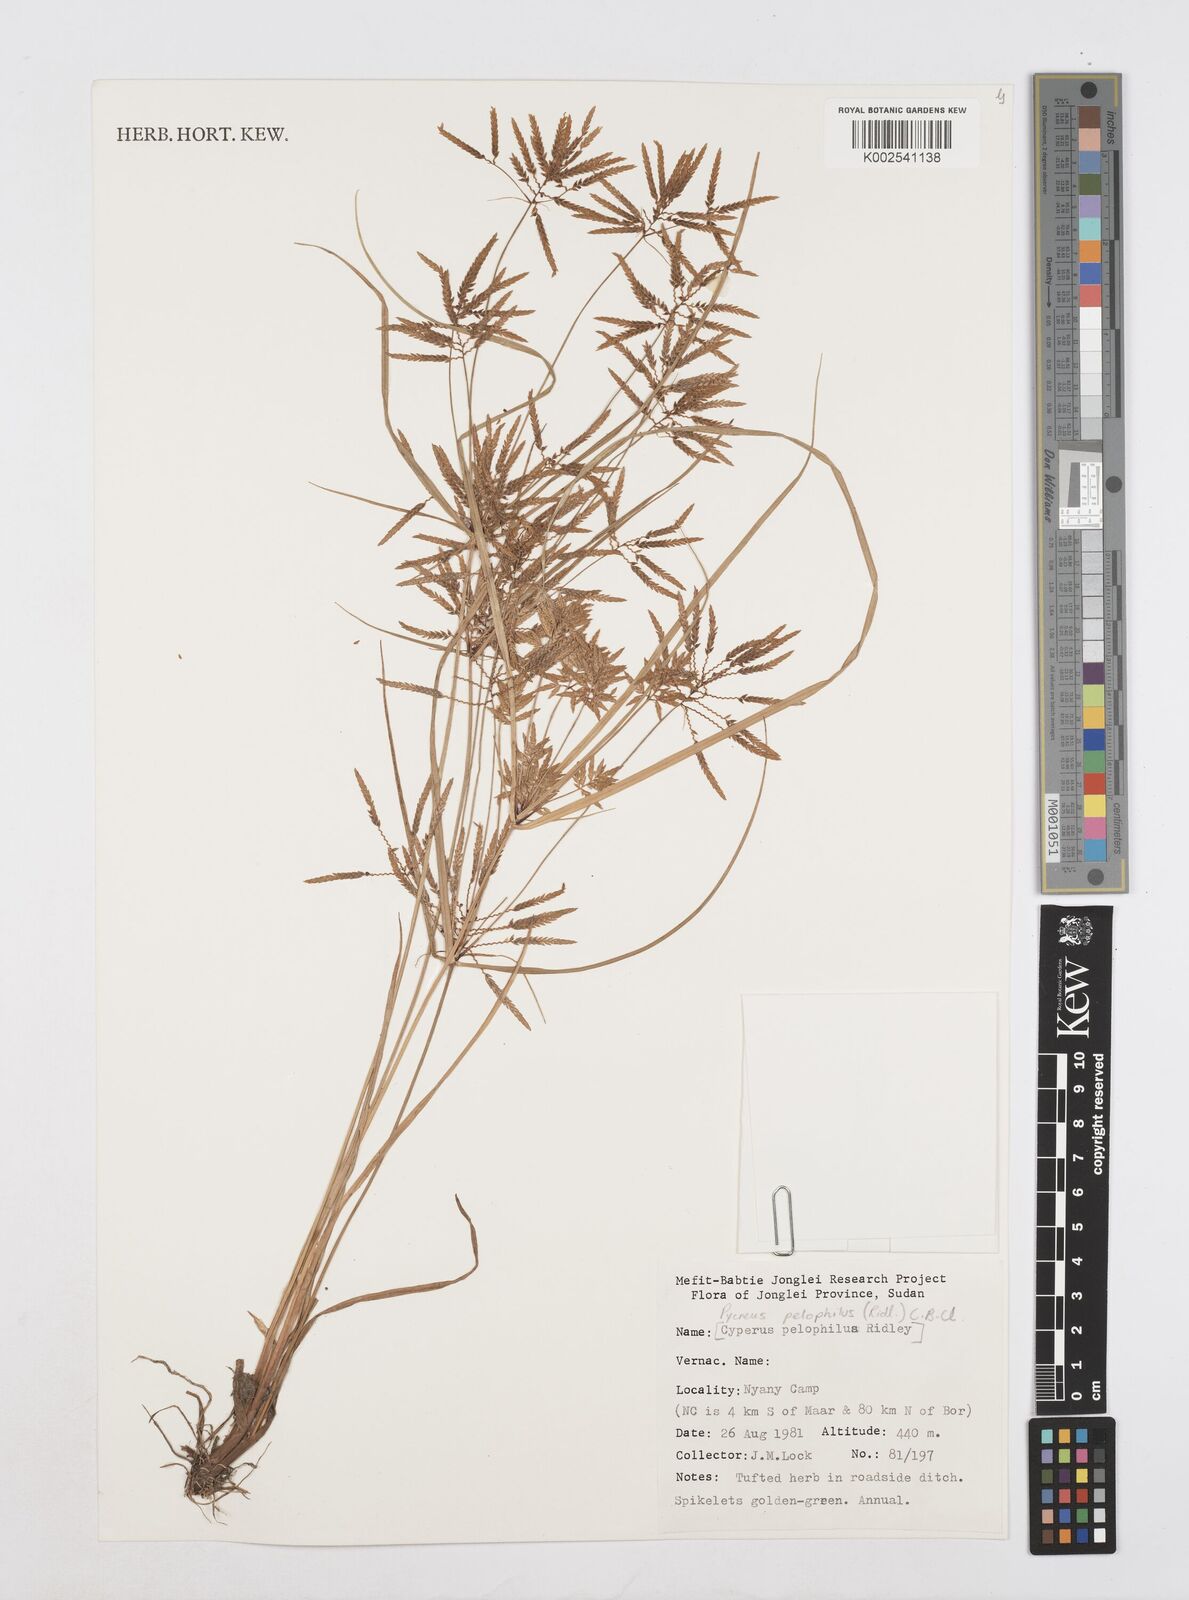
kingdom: Plantae
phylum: Tracheophyta
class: Liliopsida
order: Poales
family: Cyperaceae
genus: Cyperus
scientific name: Cyperus pelophilus
